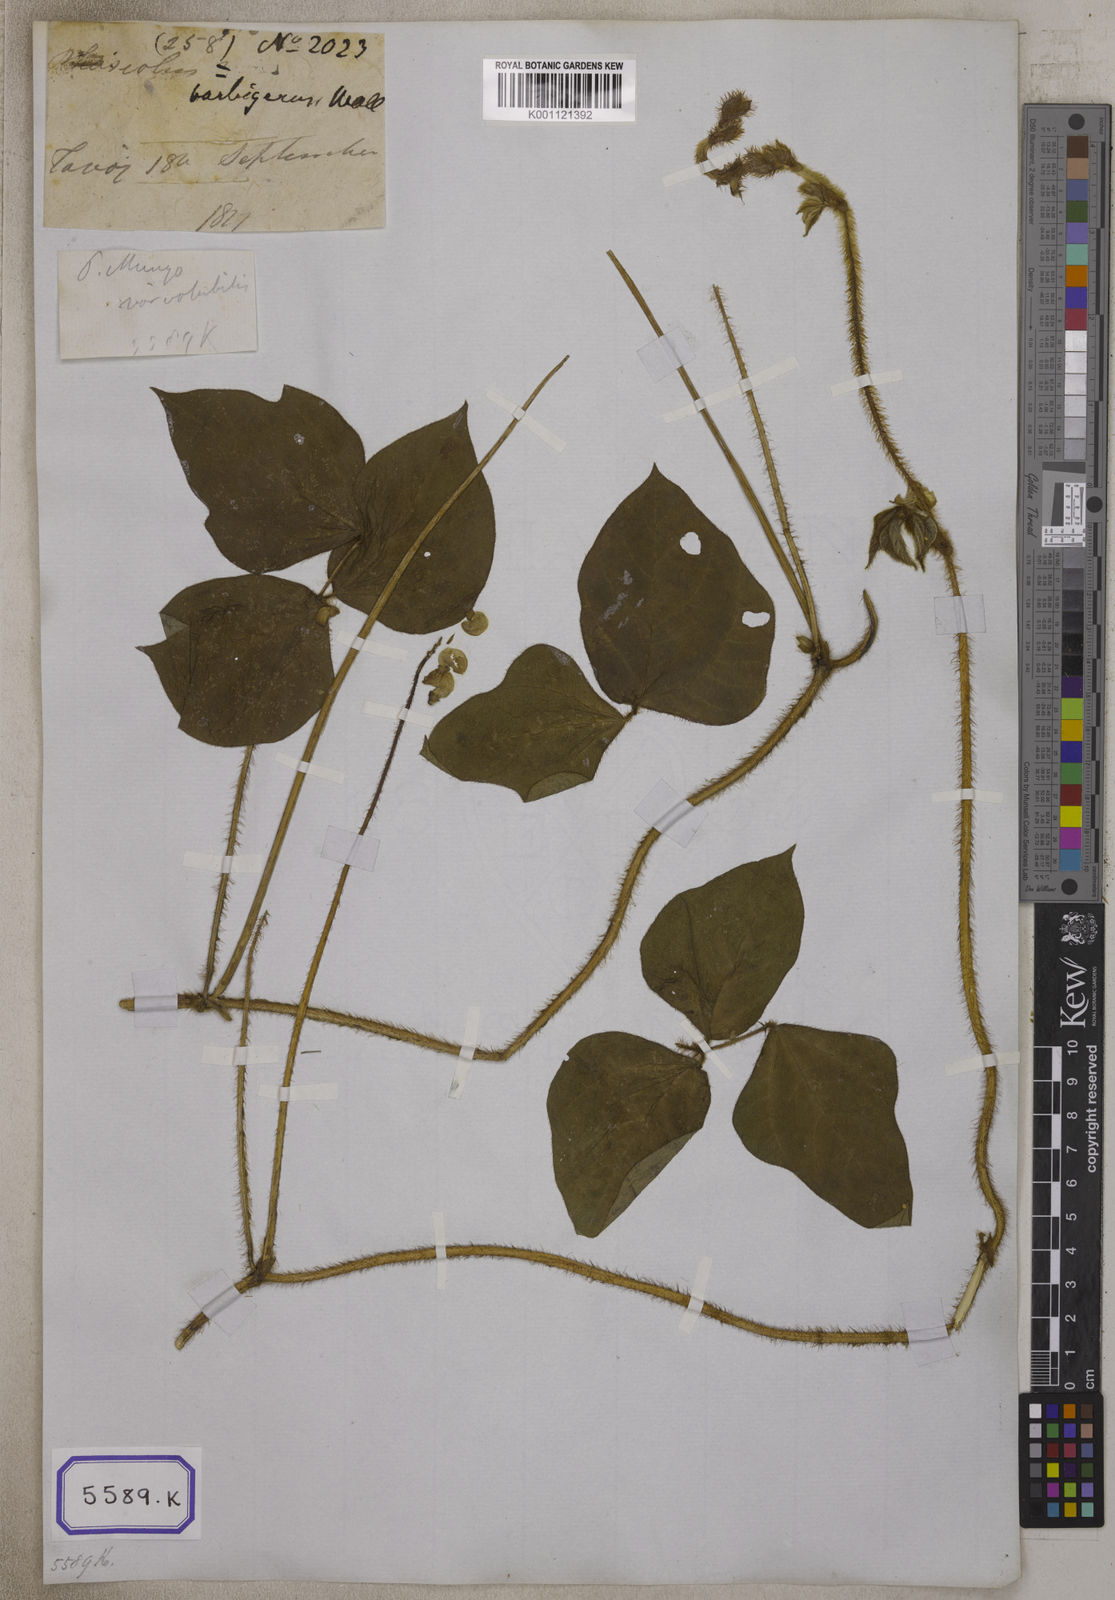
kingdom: Plantae
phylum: Tracheophyta
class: Magnoliopsida
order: Fabales
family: Fabaceae
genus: Phaseolus
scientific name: Phaseolus
